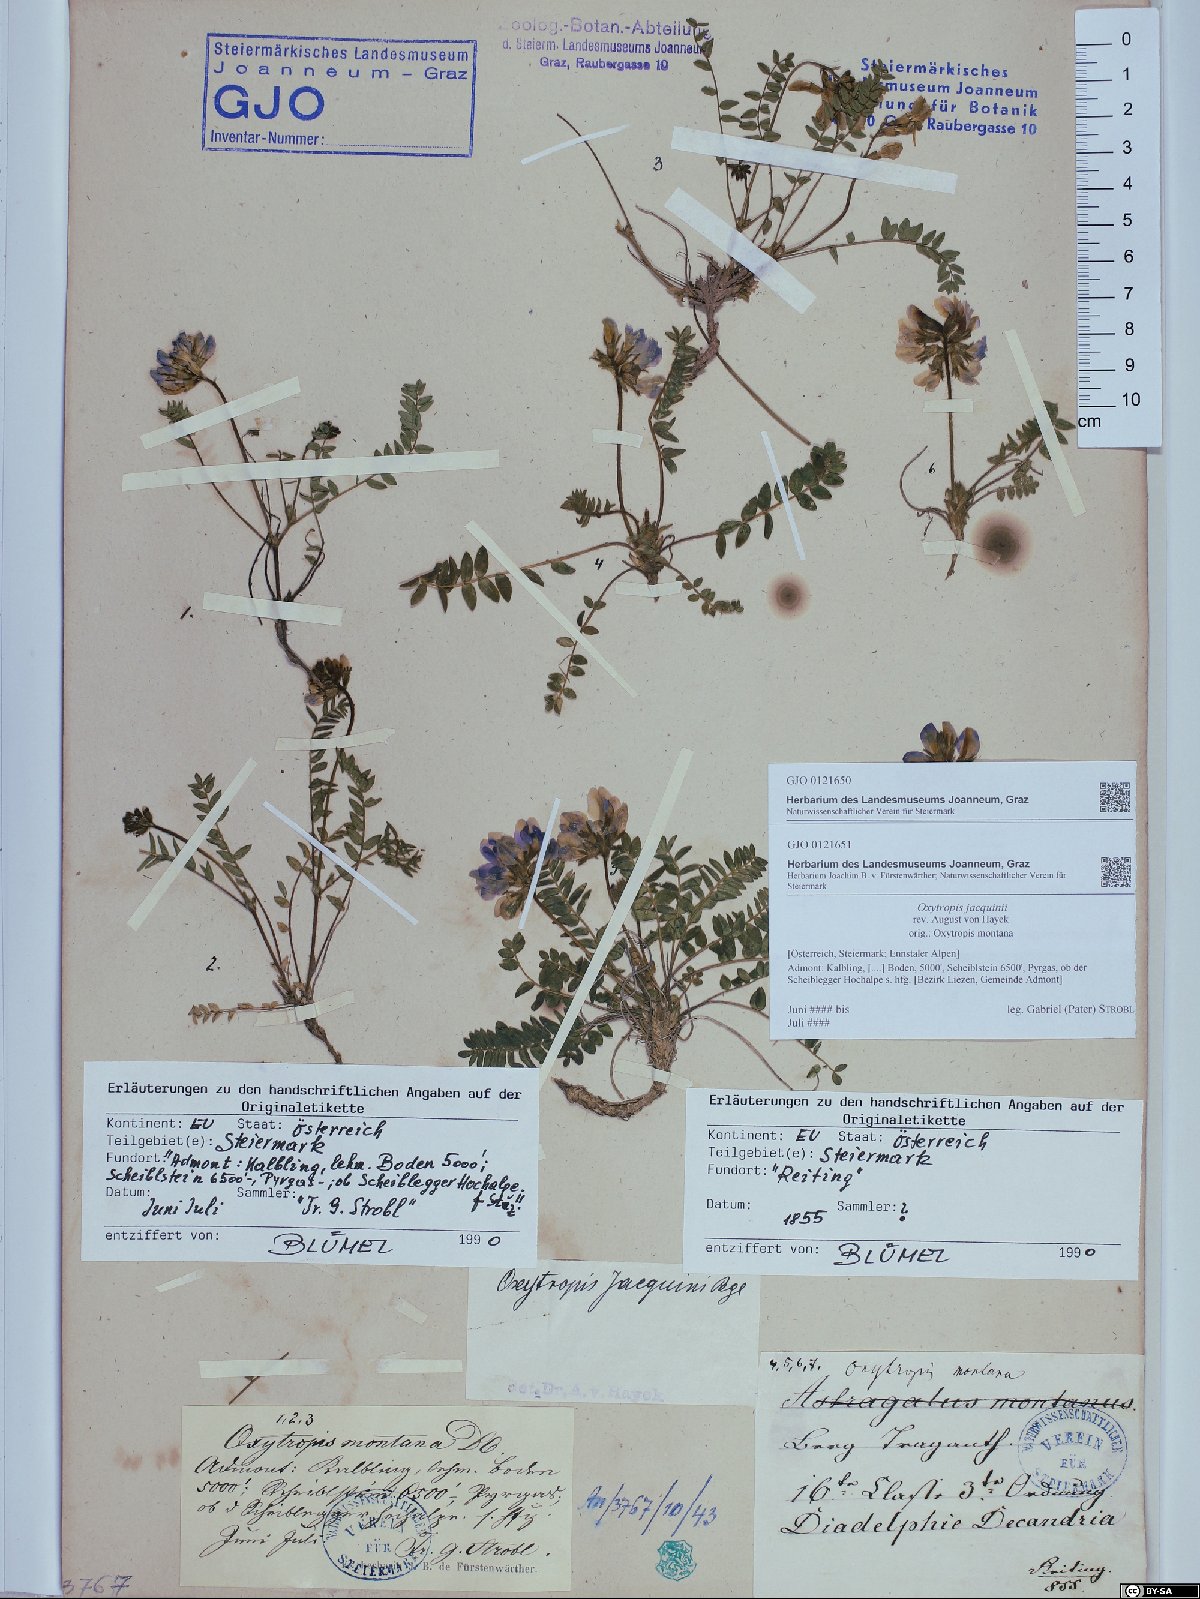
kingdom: Plantae
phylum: Tracheophyta
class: Magnoliopsida
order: Fabales
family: Fabaceae
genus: Oxytropis
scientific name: Oxytropis montana
